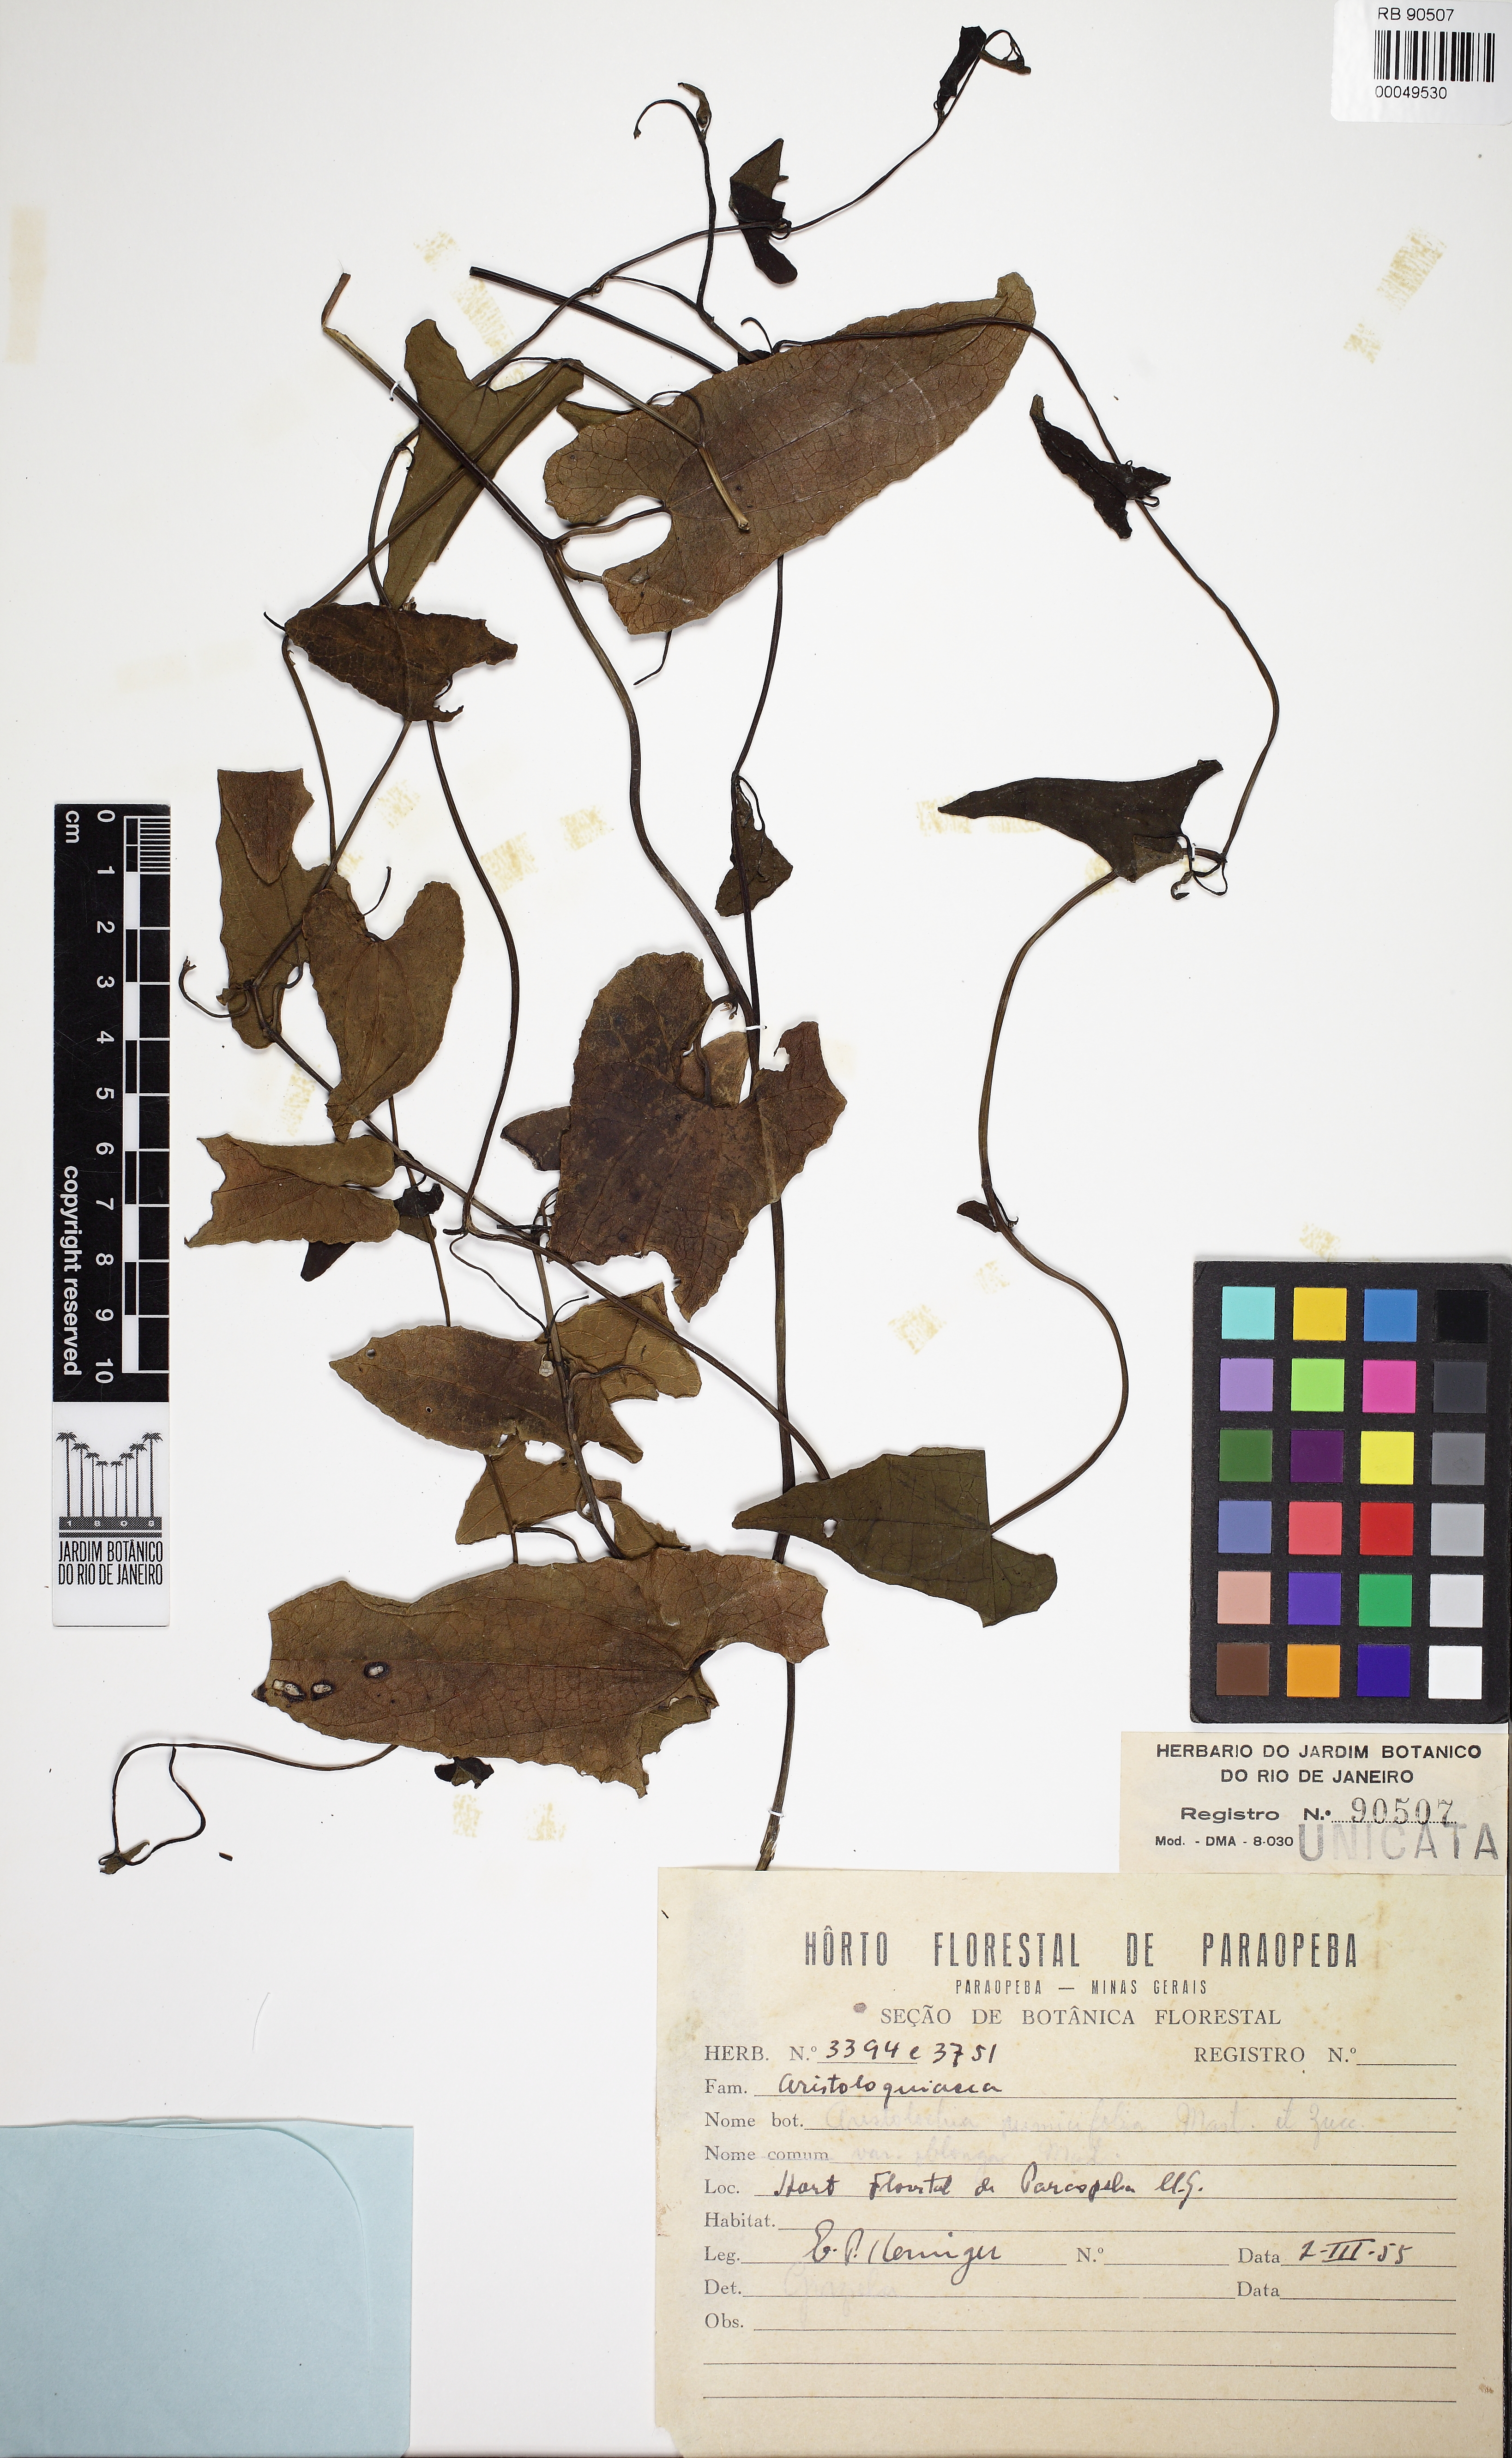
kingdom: Plantae
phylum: Tracheophyta
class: Magnoliopsida
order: Piperales
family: Aristolochiaceae
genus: Aristolochia
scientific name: Aristolochia rumicifolia
